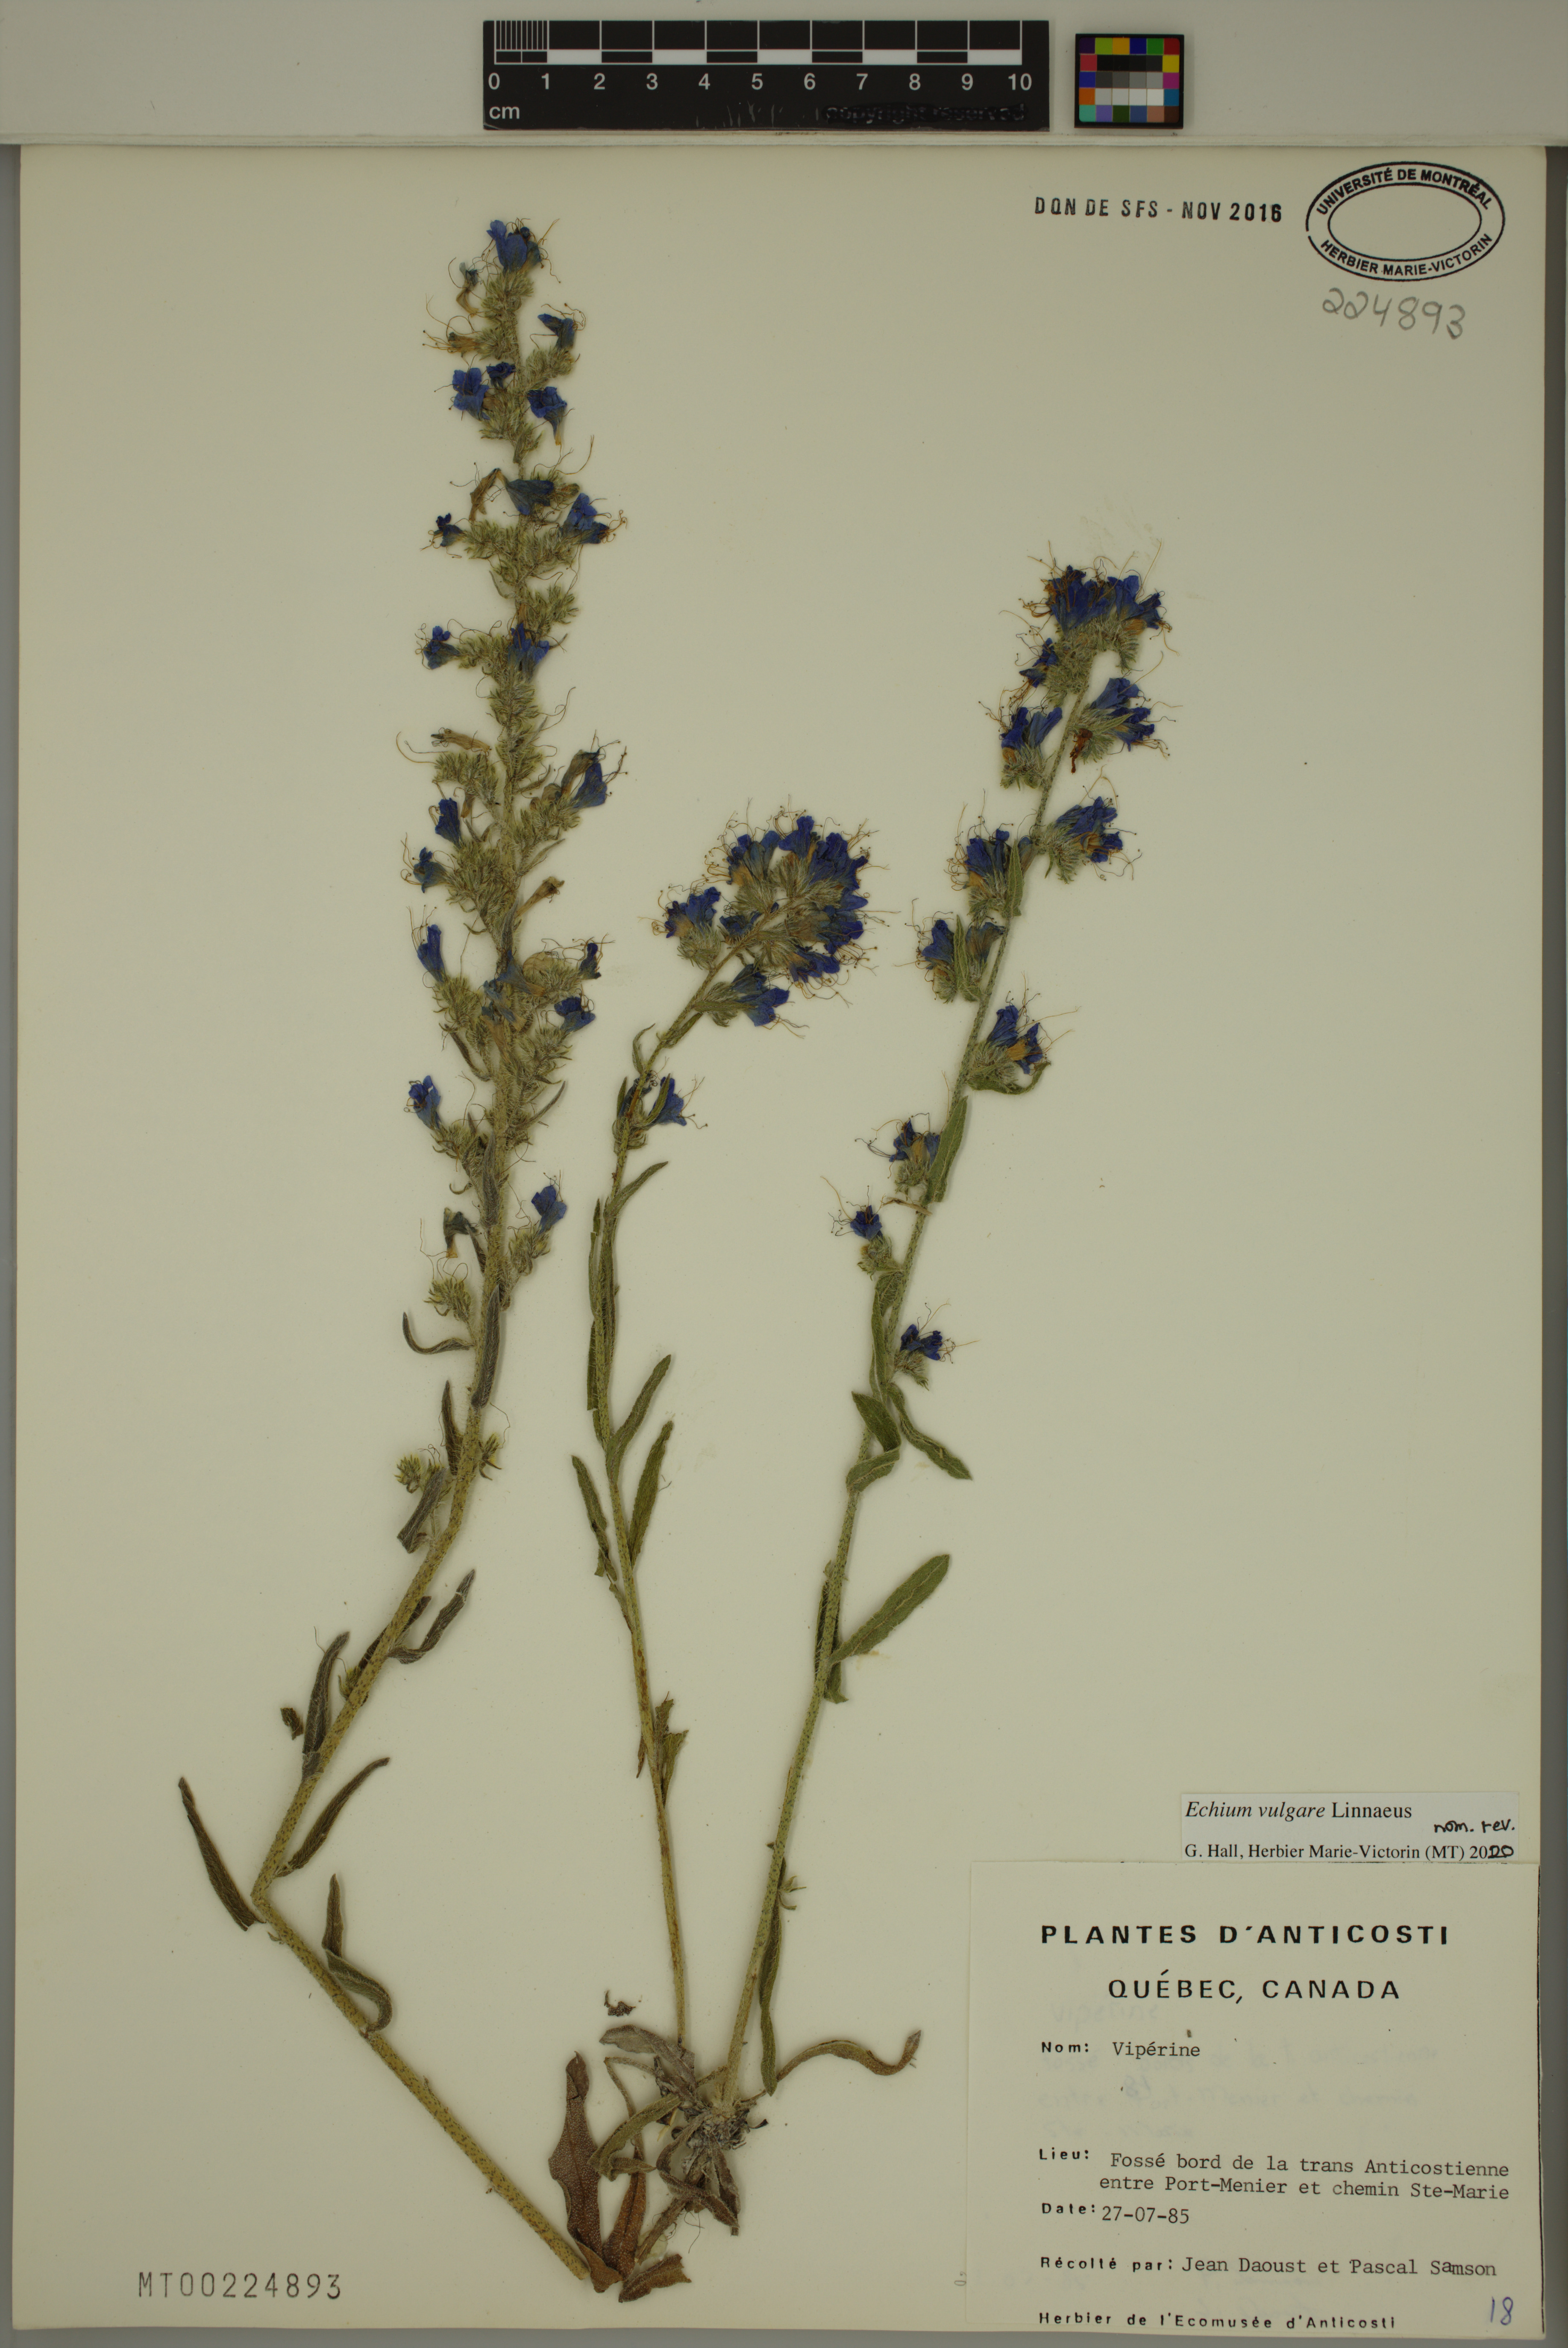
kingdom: Plantae
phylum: Tracheophyta
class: Magnoliopsida
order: Boraginales
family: Boraginaceae
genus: Echium
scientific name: Echium vulgare
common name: Common viper's bugloss
